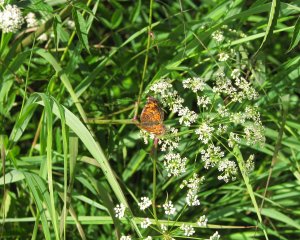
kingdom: Animalia
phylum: Arthropoda
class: Insecta
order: Lepidoptera
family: Nymphalidae
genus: Phyciodes
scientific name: Phyciodes tharos
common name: Northern Crescent
